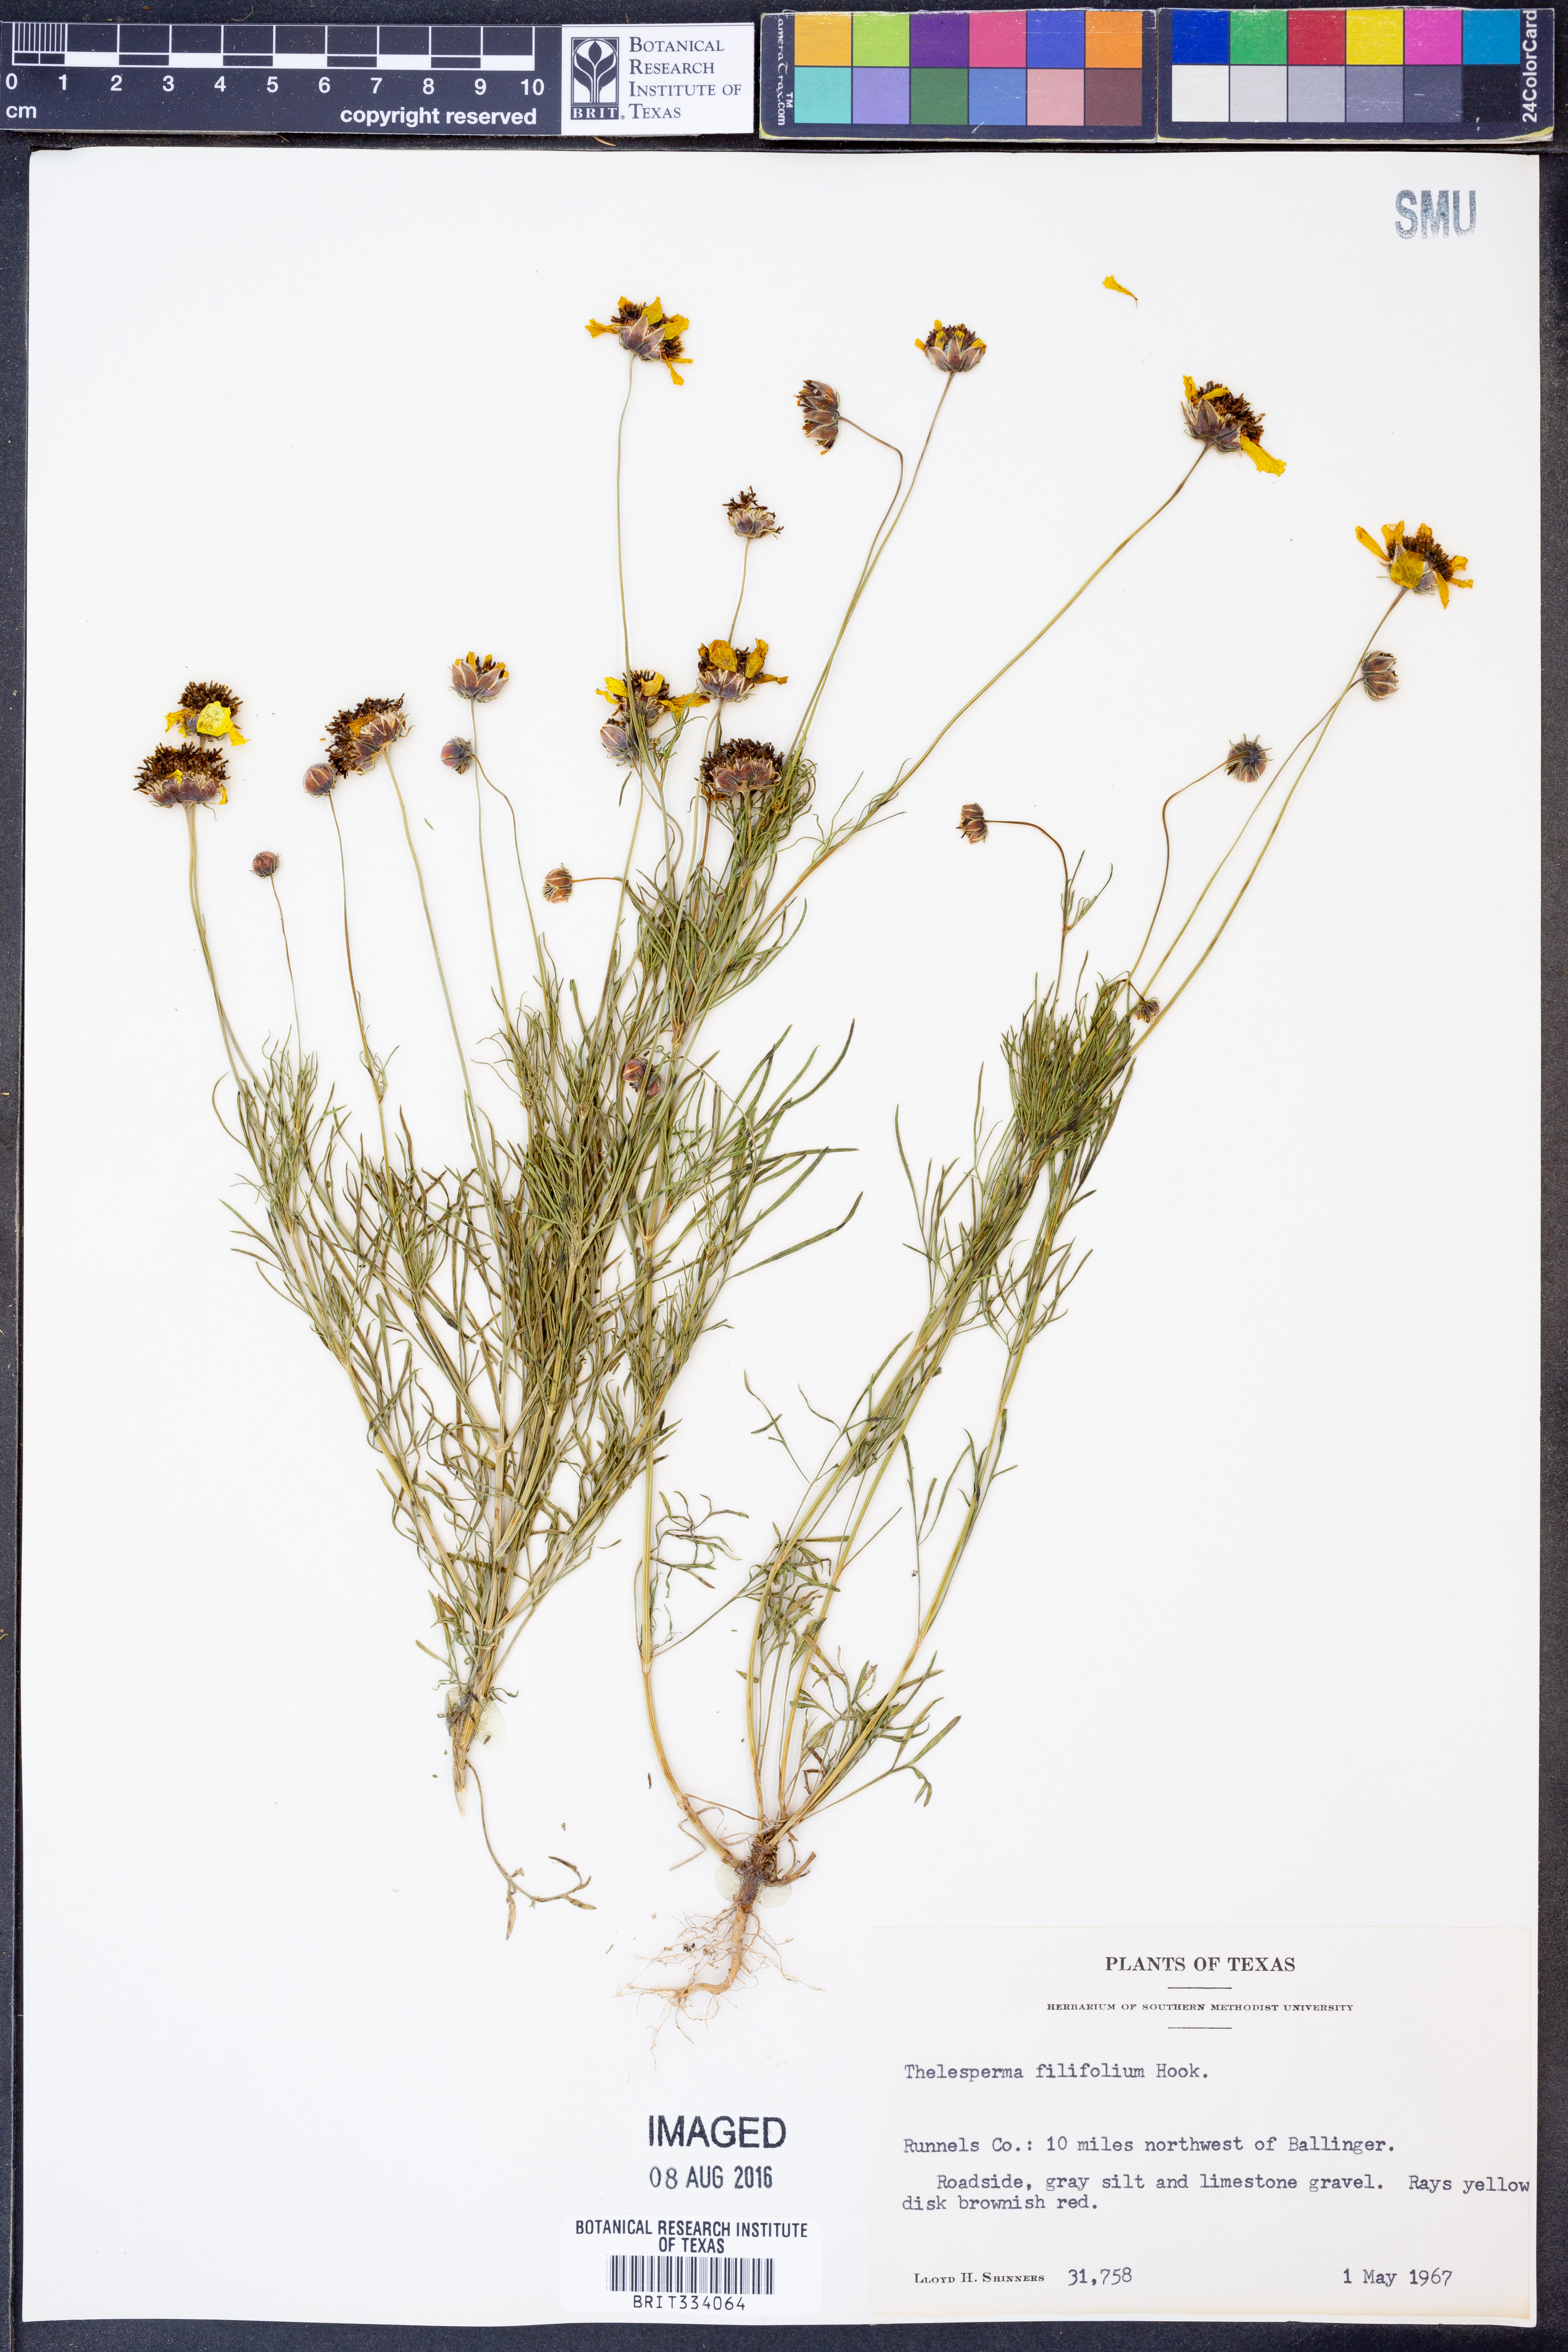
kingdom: Plantae
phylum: Tracheophyta
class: Magnoliopsida
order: Asterales
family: Asteraceae
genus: Thelesperma
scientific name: Thelesperma filifolium
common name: Stiff greenthread
